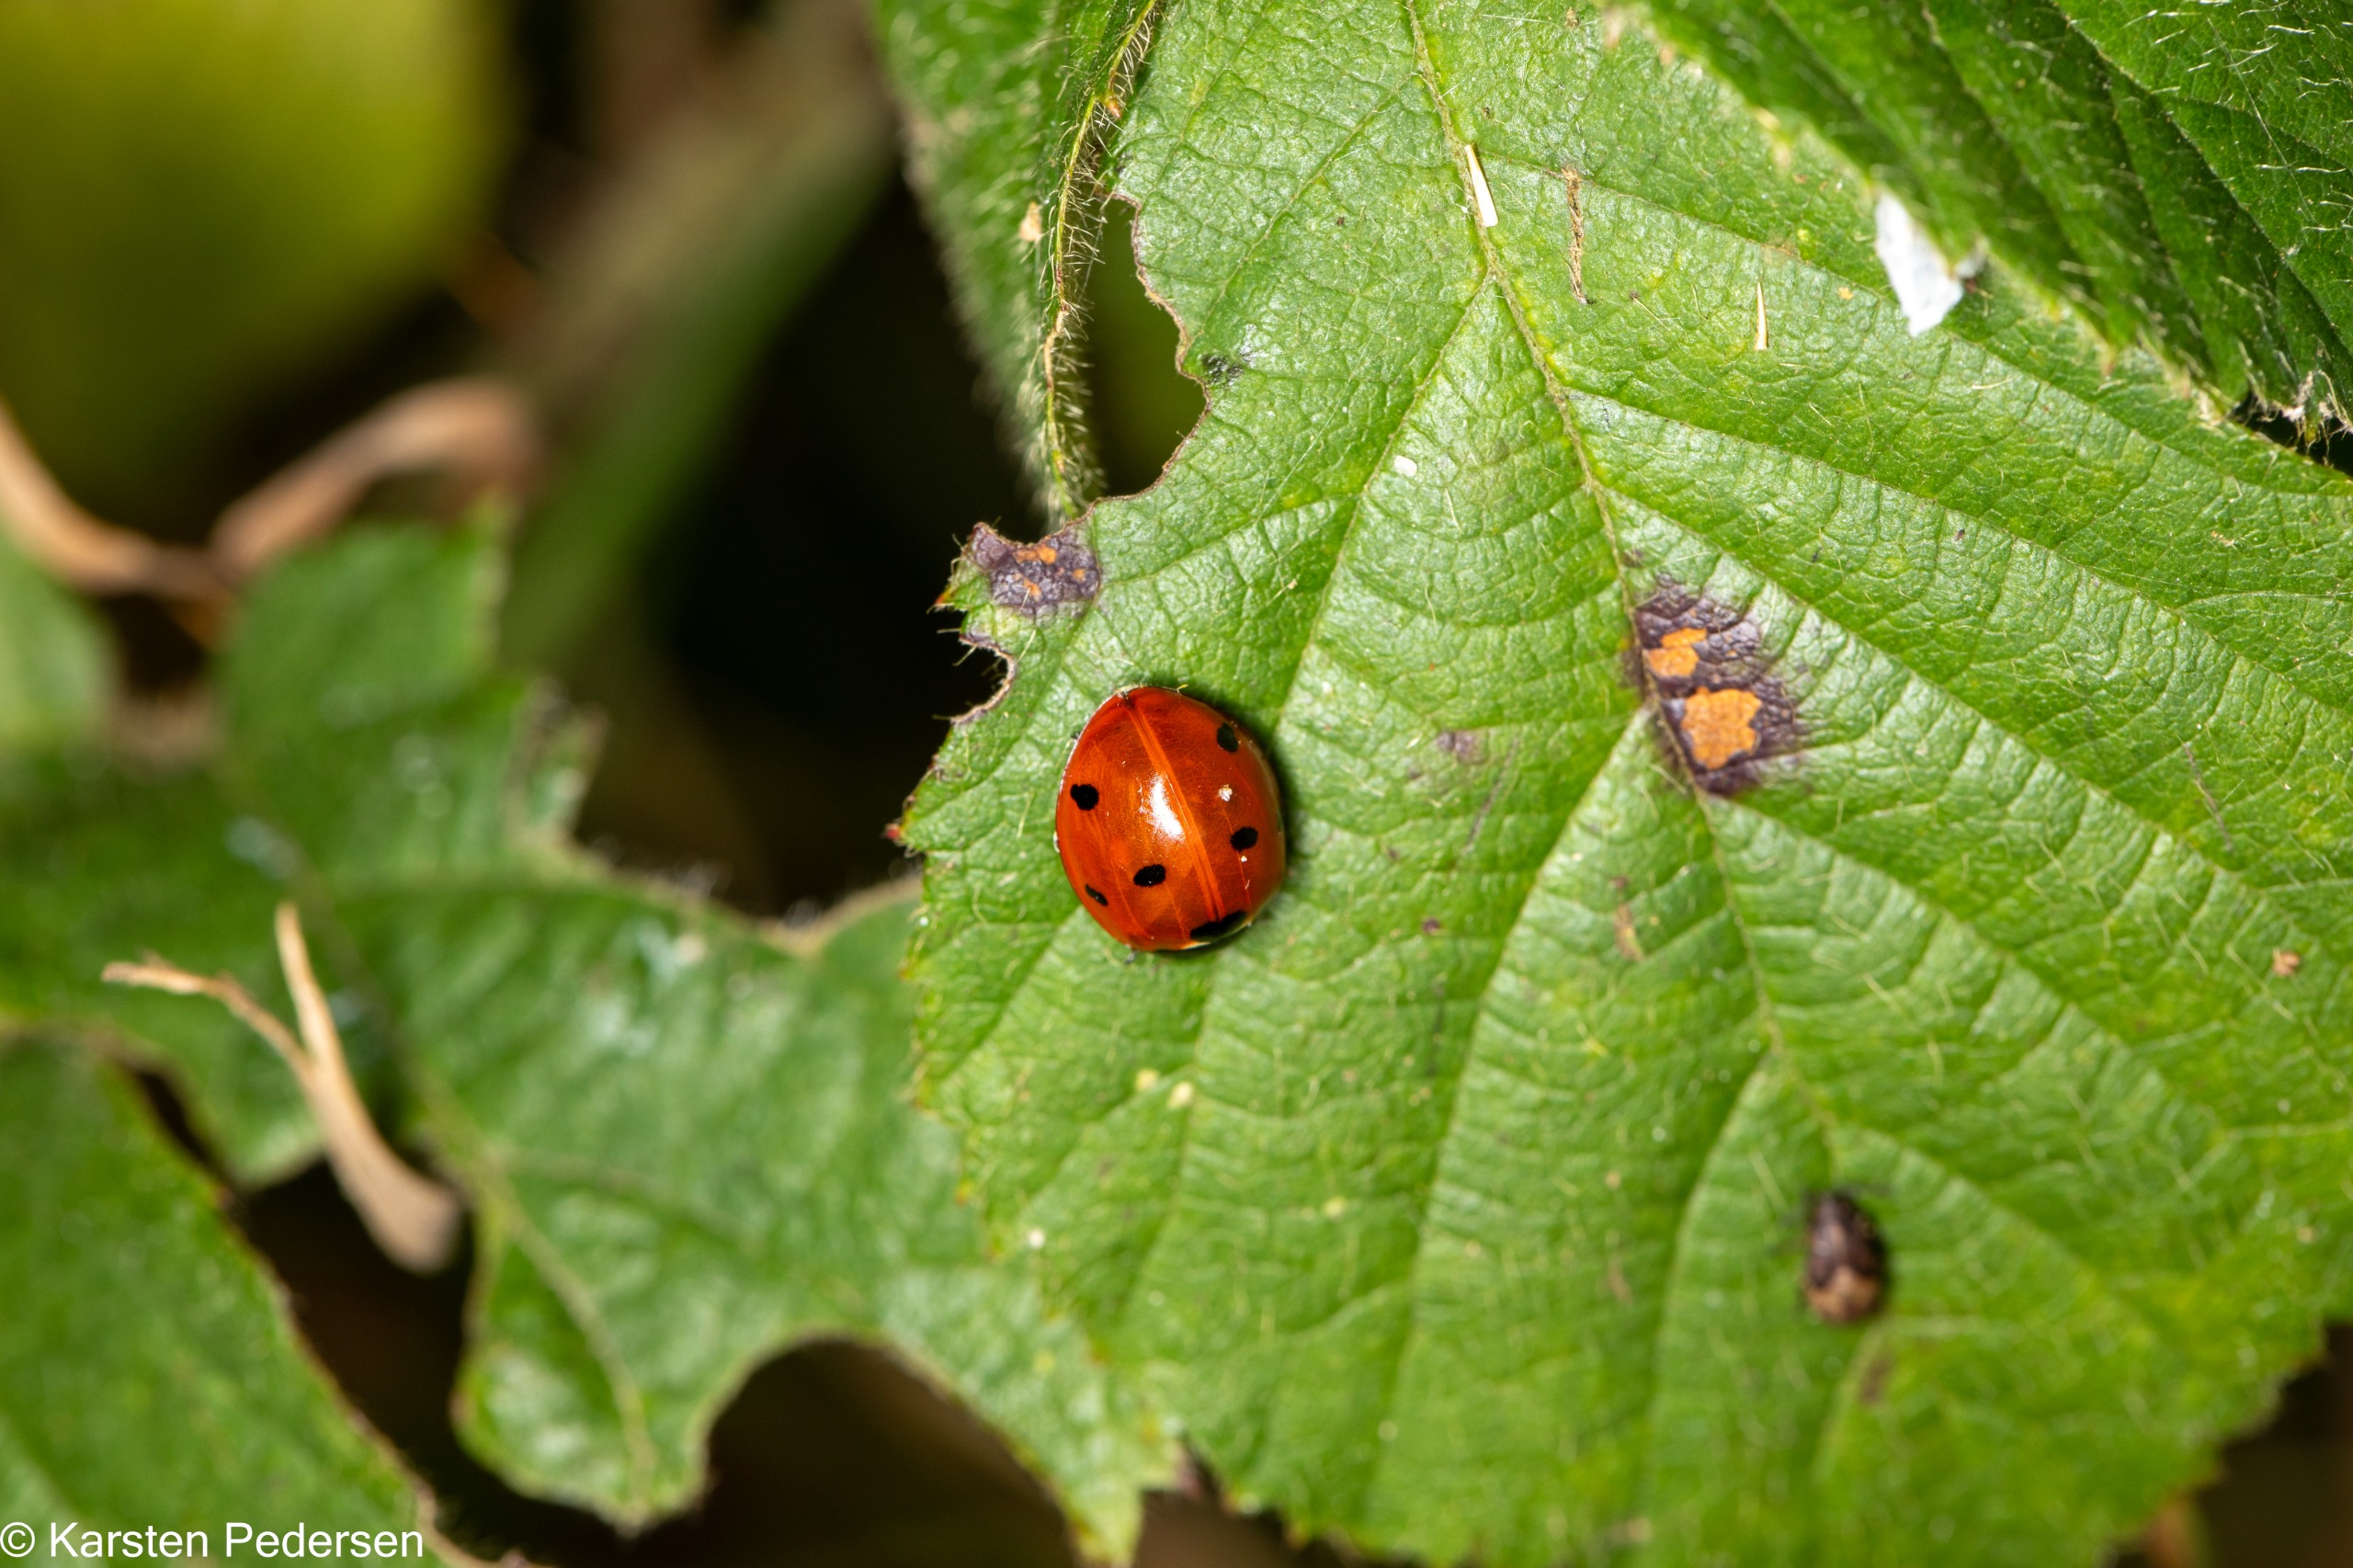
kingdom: Animalia
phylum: Arthropoda
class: Insecta
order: Coleoptera
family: Coccinellidae
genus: Coccinella
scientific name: Coccinella septempunctata
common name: Syvplettet mariehøne
